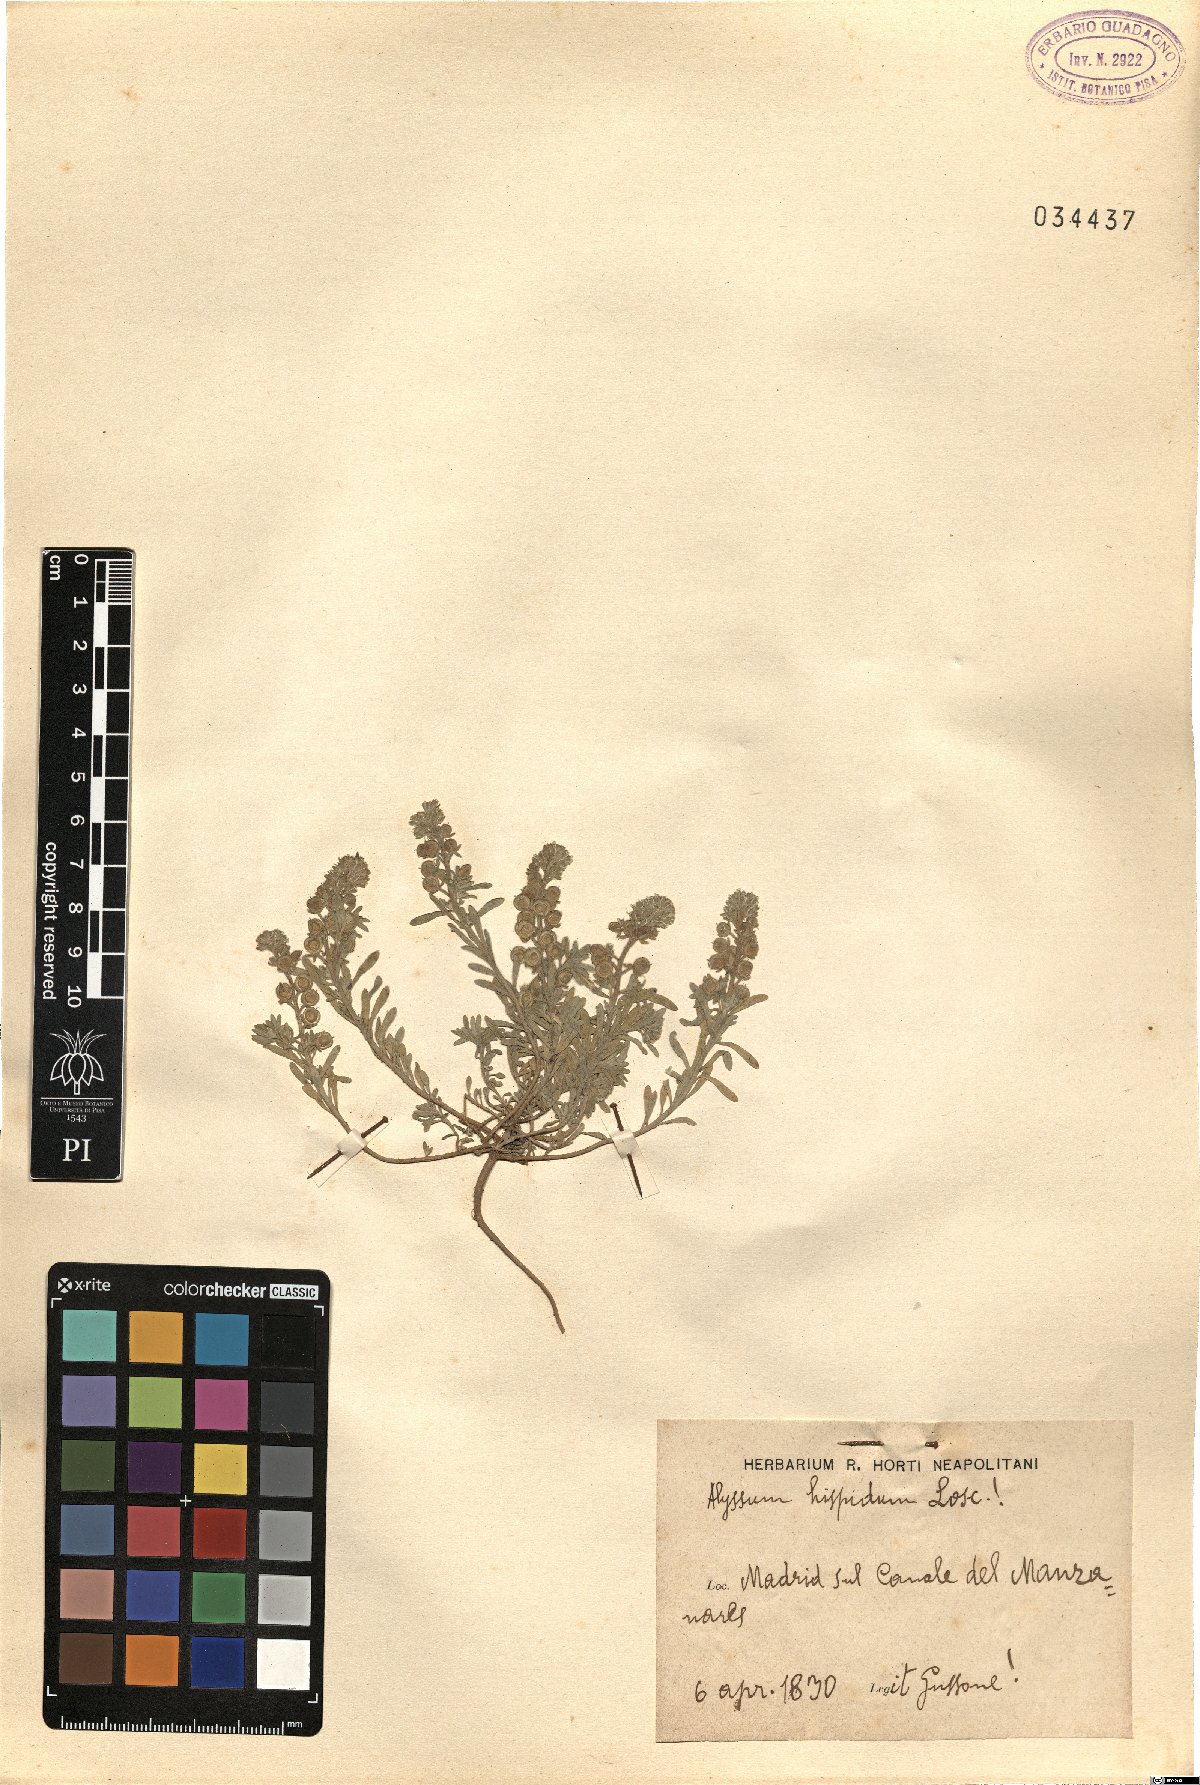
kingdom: Plantae
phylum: Tracheophyta
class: Magnoliopsida
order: Brassicales
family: Brassicaceae
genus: Alyssum
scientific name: Alyssum granatense
